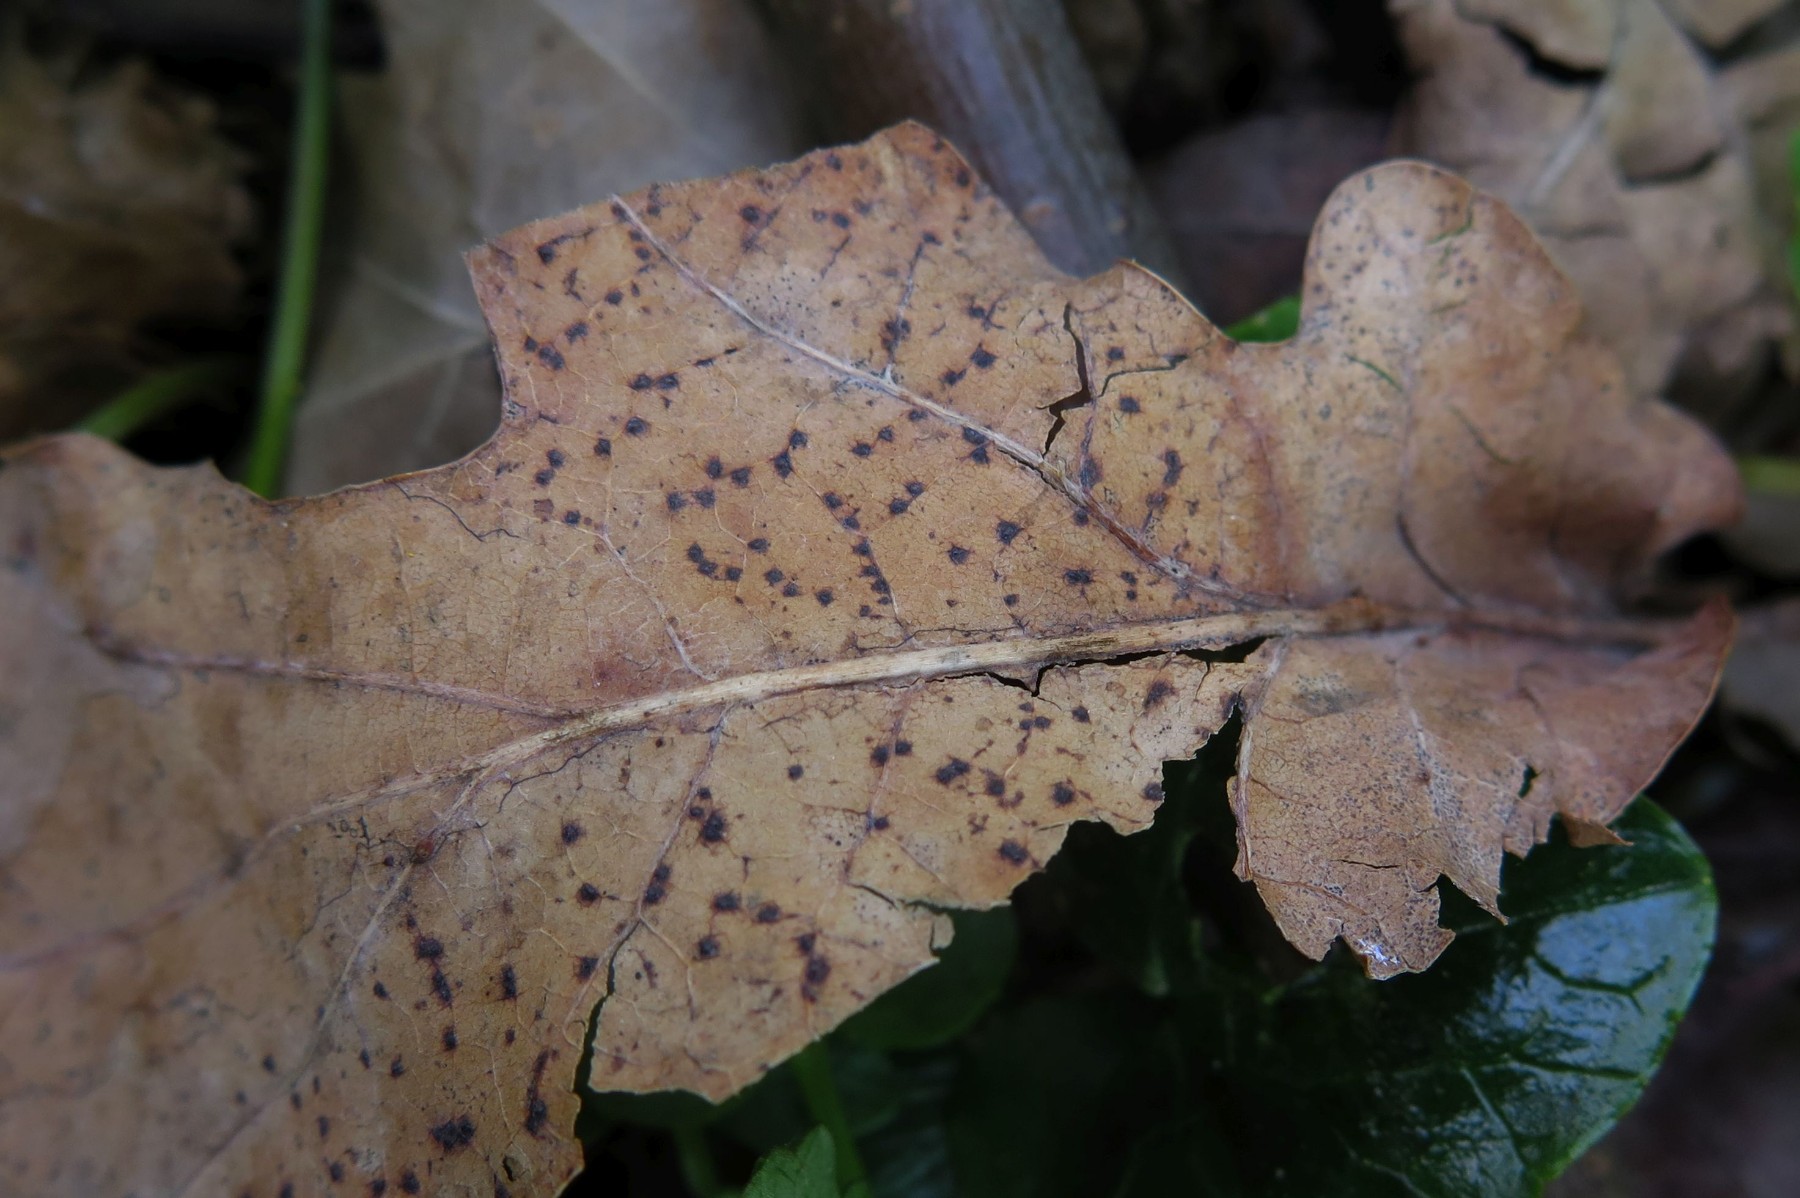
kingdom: Fungi
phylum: Ascomycota
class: Sordariomycetes
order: Diaporthales
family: Valsaceae
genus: Hypospilina
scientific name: Hypospilina pustula
